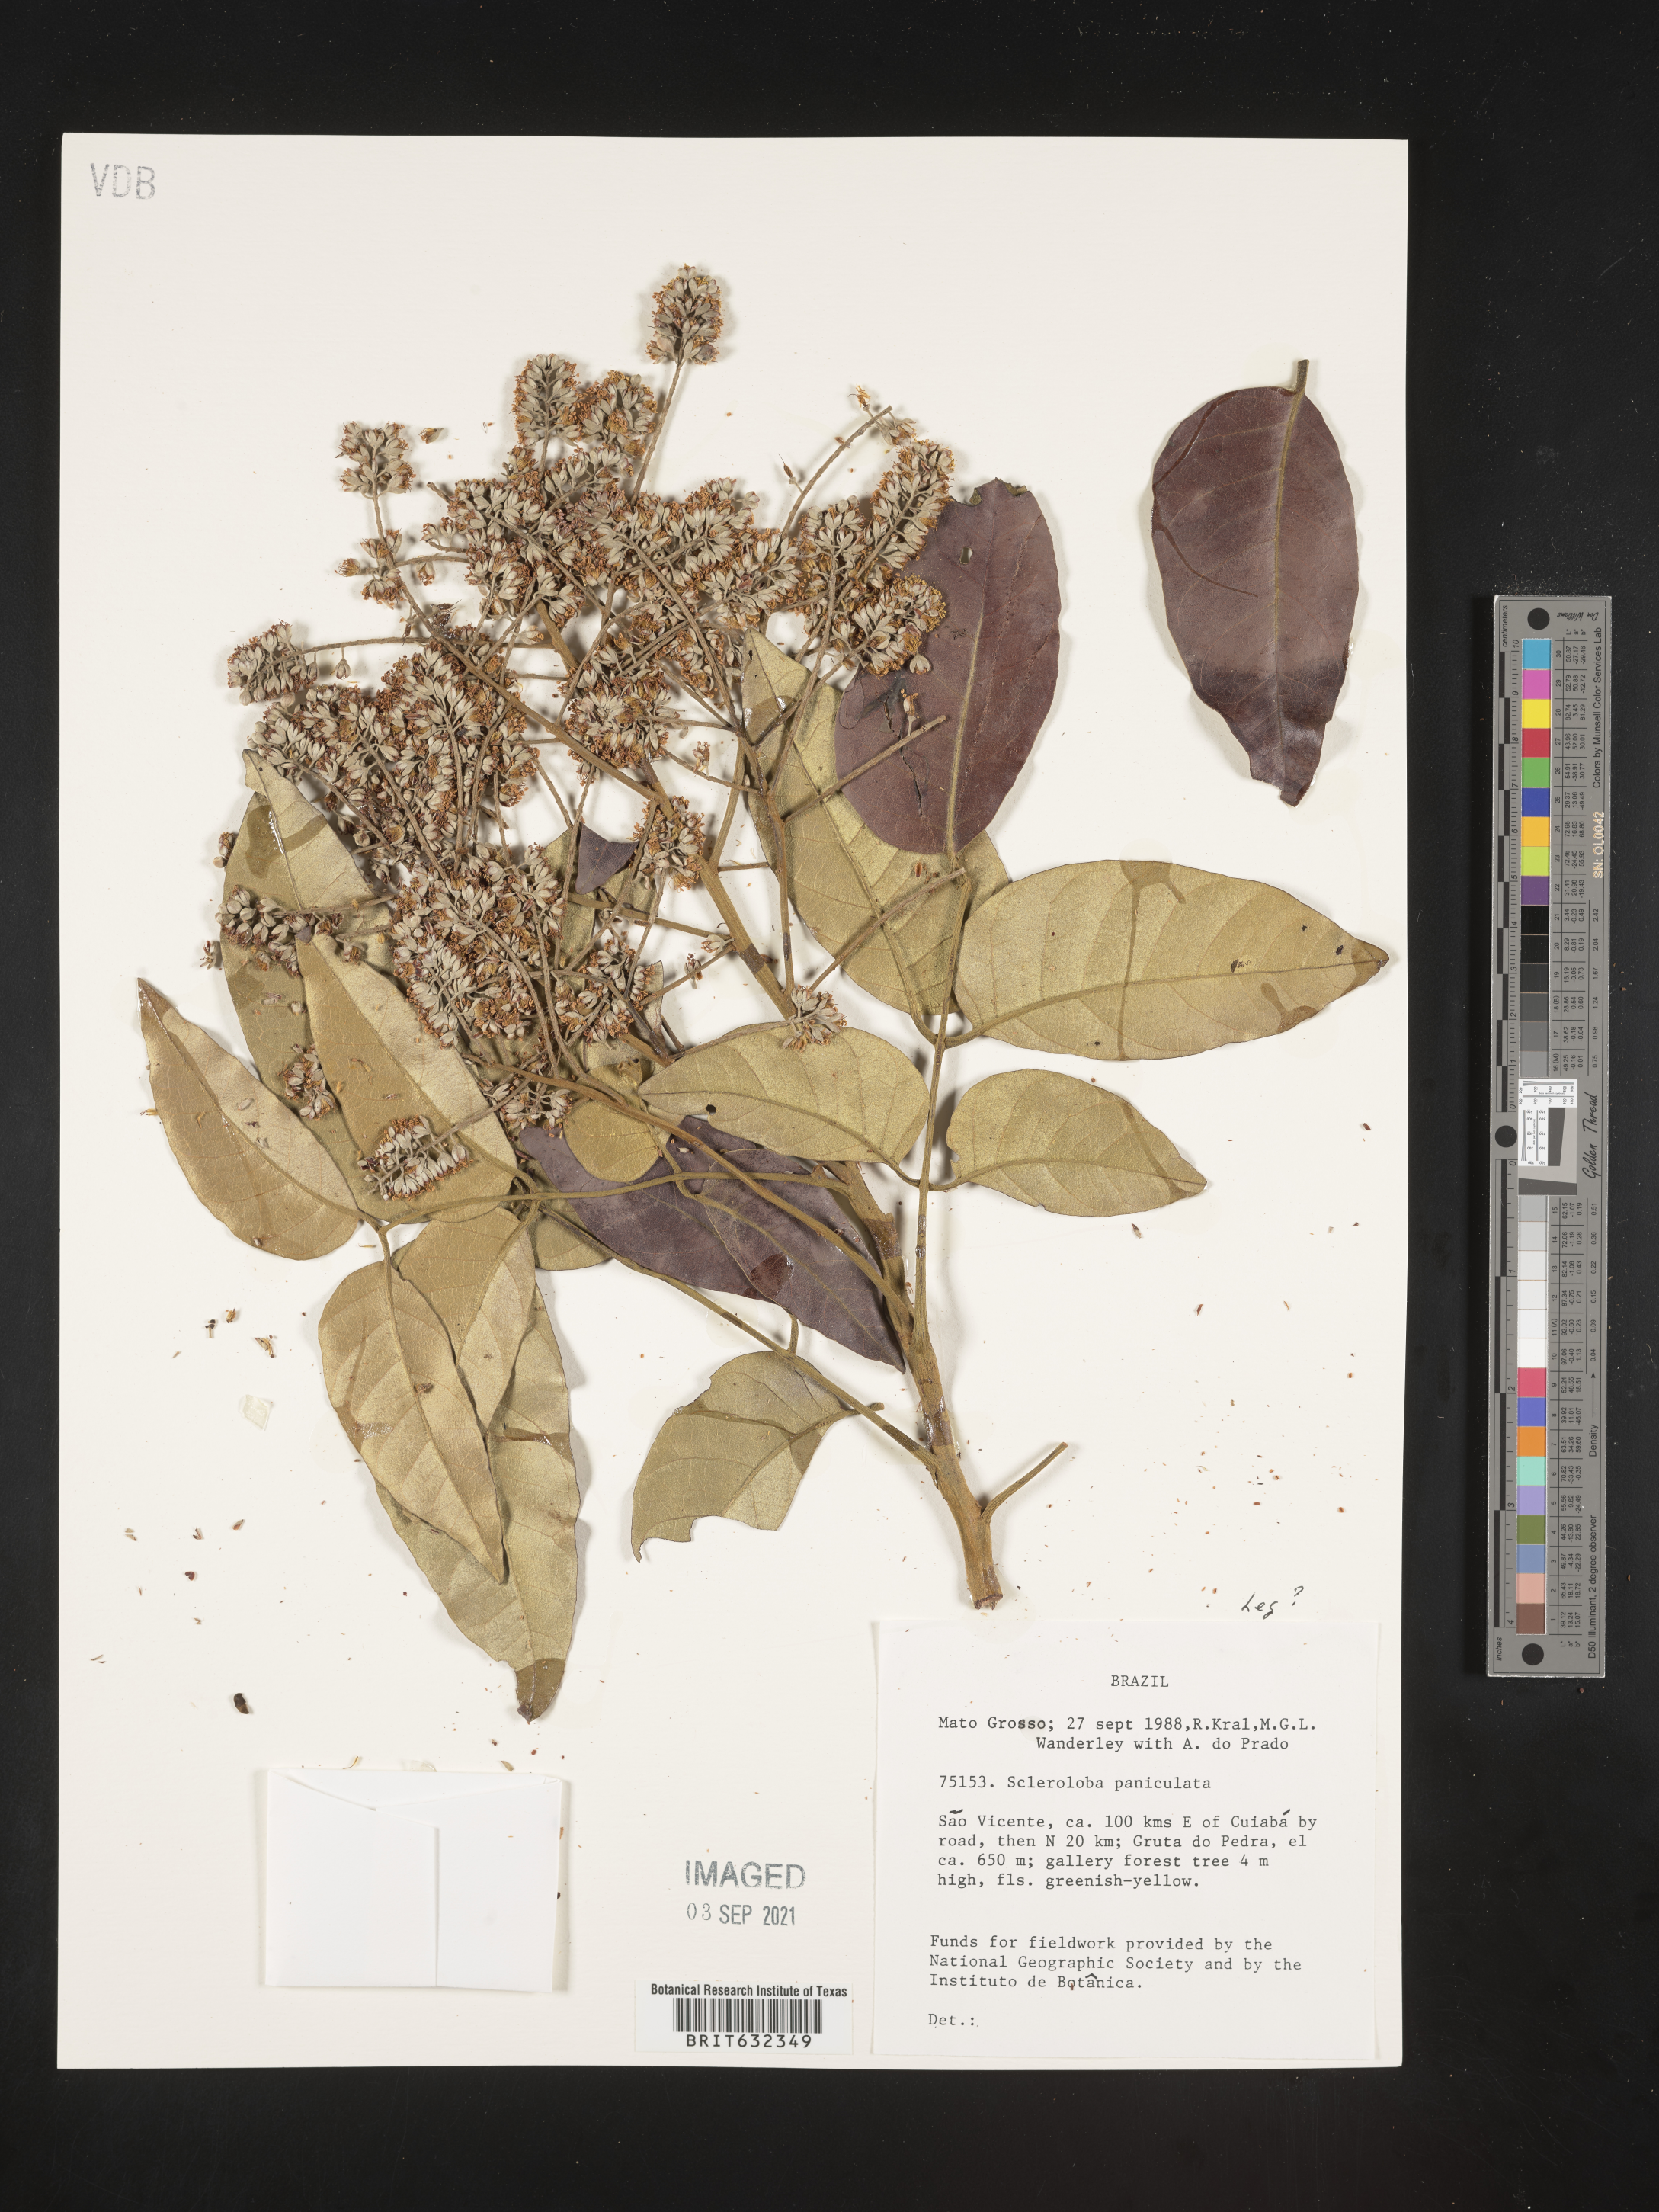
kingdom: Plantae
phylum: Tracheophyta
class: Magnoliopsida
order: Fabales
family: Fabaceae
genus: Tachigali
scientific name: Tachigali
